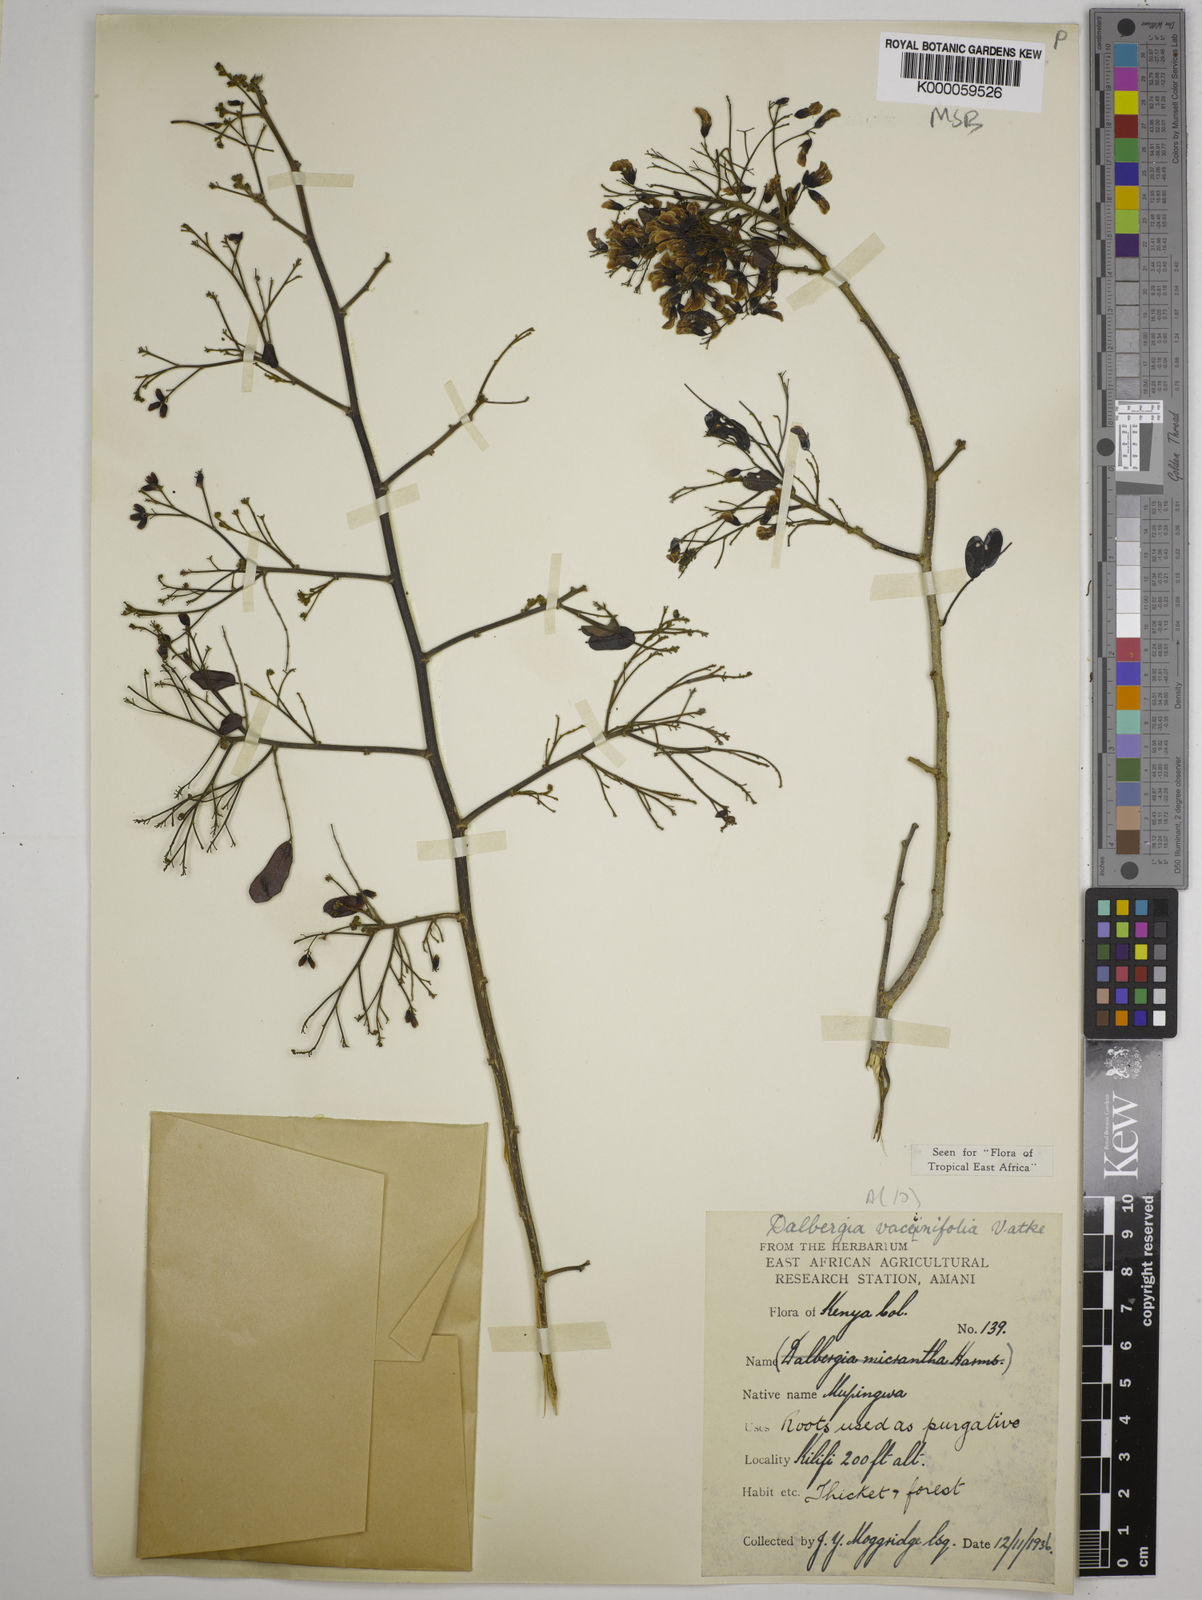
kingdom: Plantae
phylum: Tracheophyta
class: Magnoliopsida
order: Fabales
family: Fabaceae
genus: Dalbergia
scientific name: Dalbergia vacciniifolia
